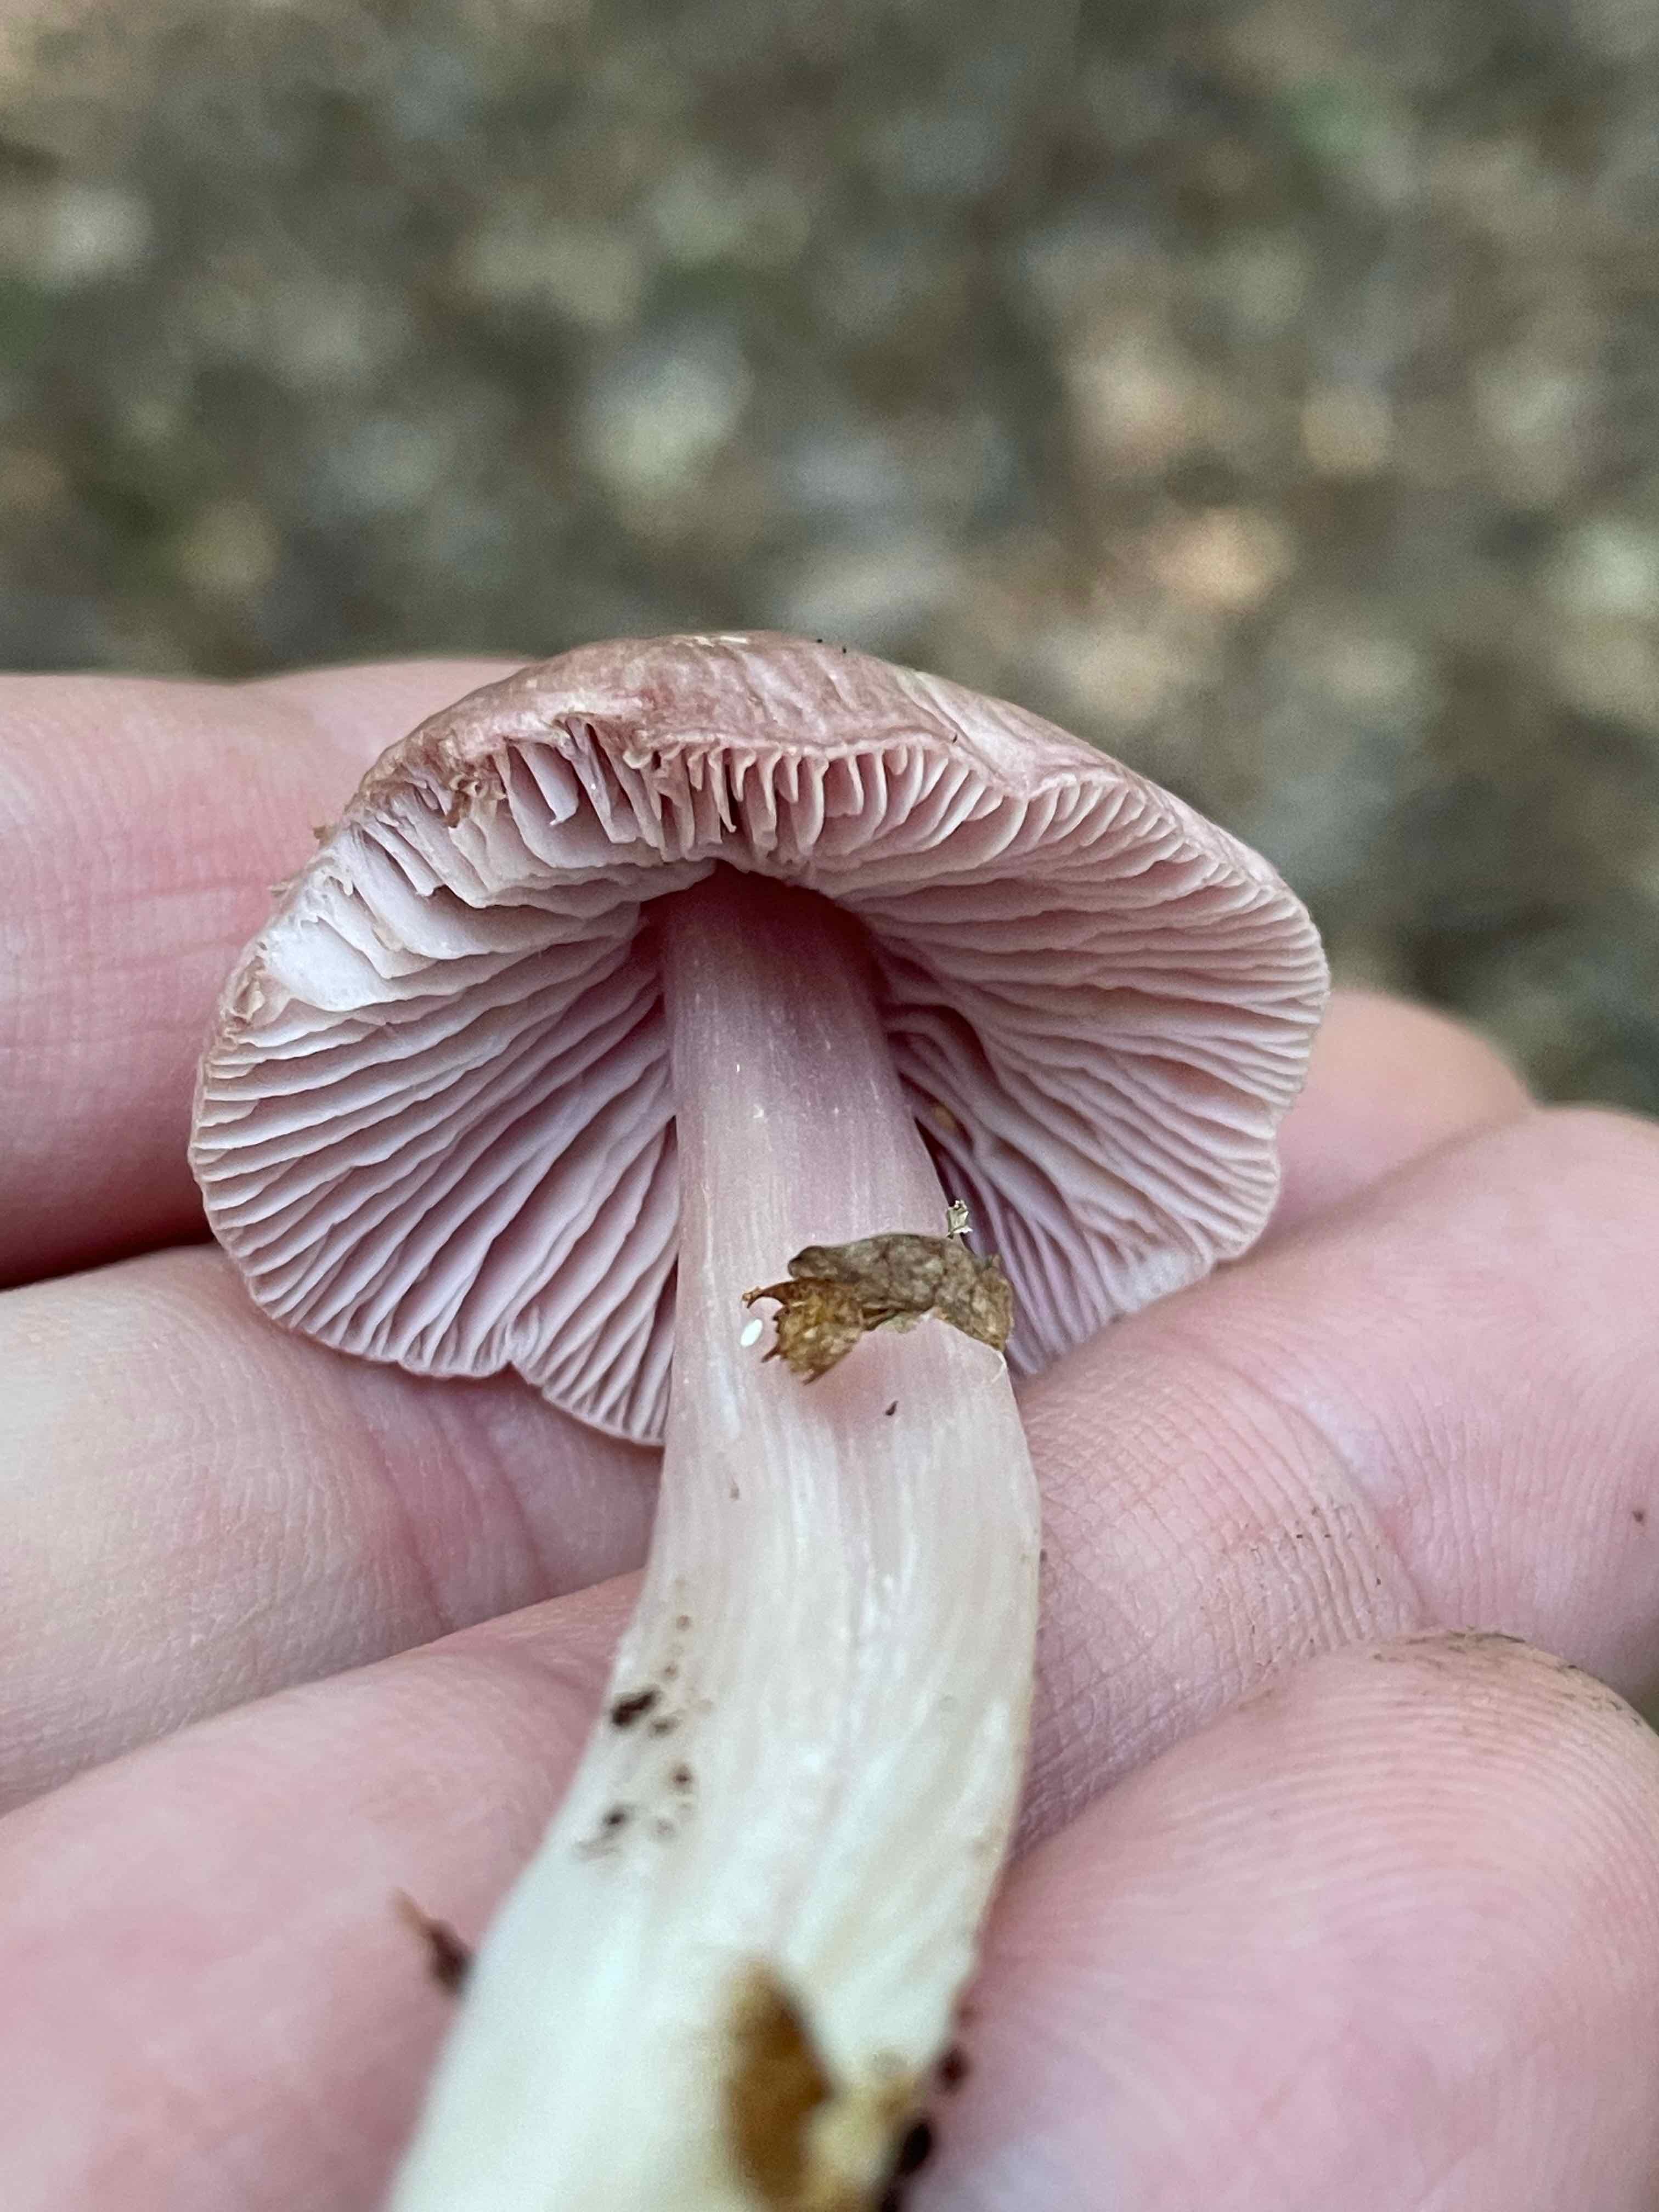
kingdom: Fungi
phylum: Basidiomycota
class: Agaricomycetes
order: Agaricales
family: Mycenaceae
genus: Mycena
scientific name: Mycena rosea
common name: rosa huesvamp
